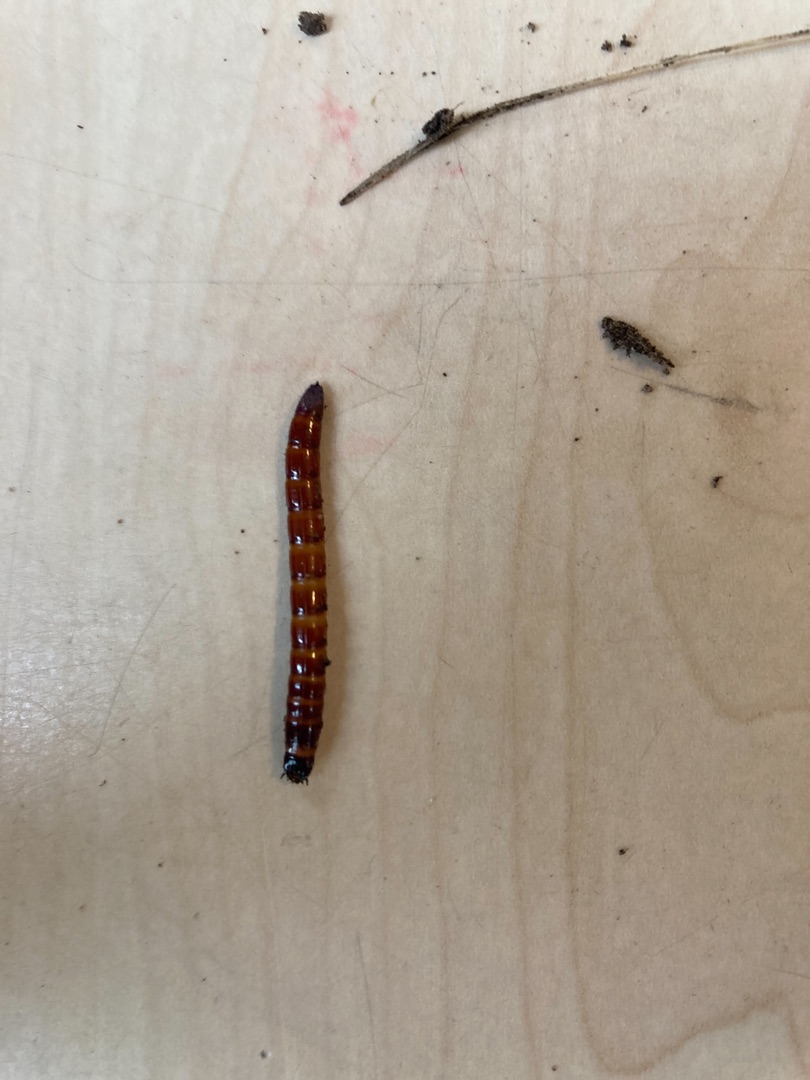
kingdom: Animalia
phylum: Arthropoda
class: Insecta
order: Coleoptera
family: Elateridae
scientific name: Elateridae
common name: Smældere
